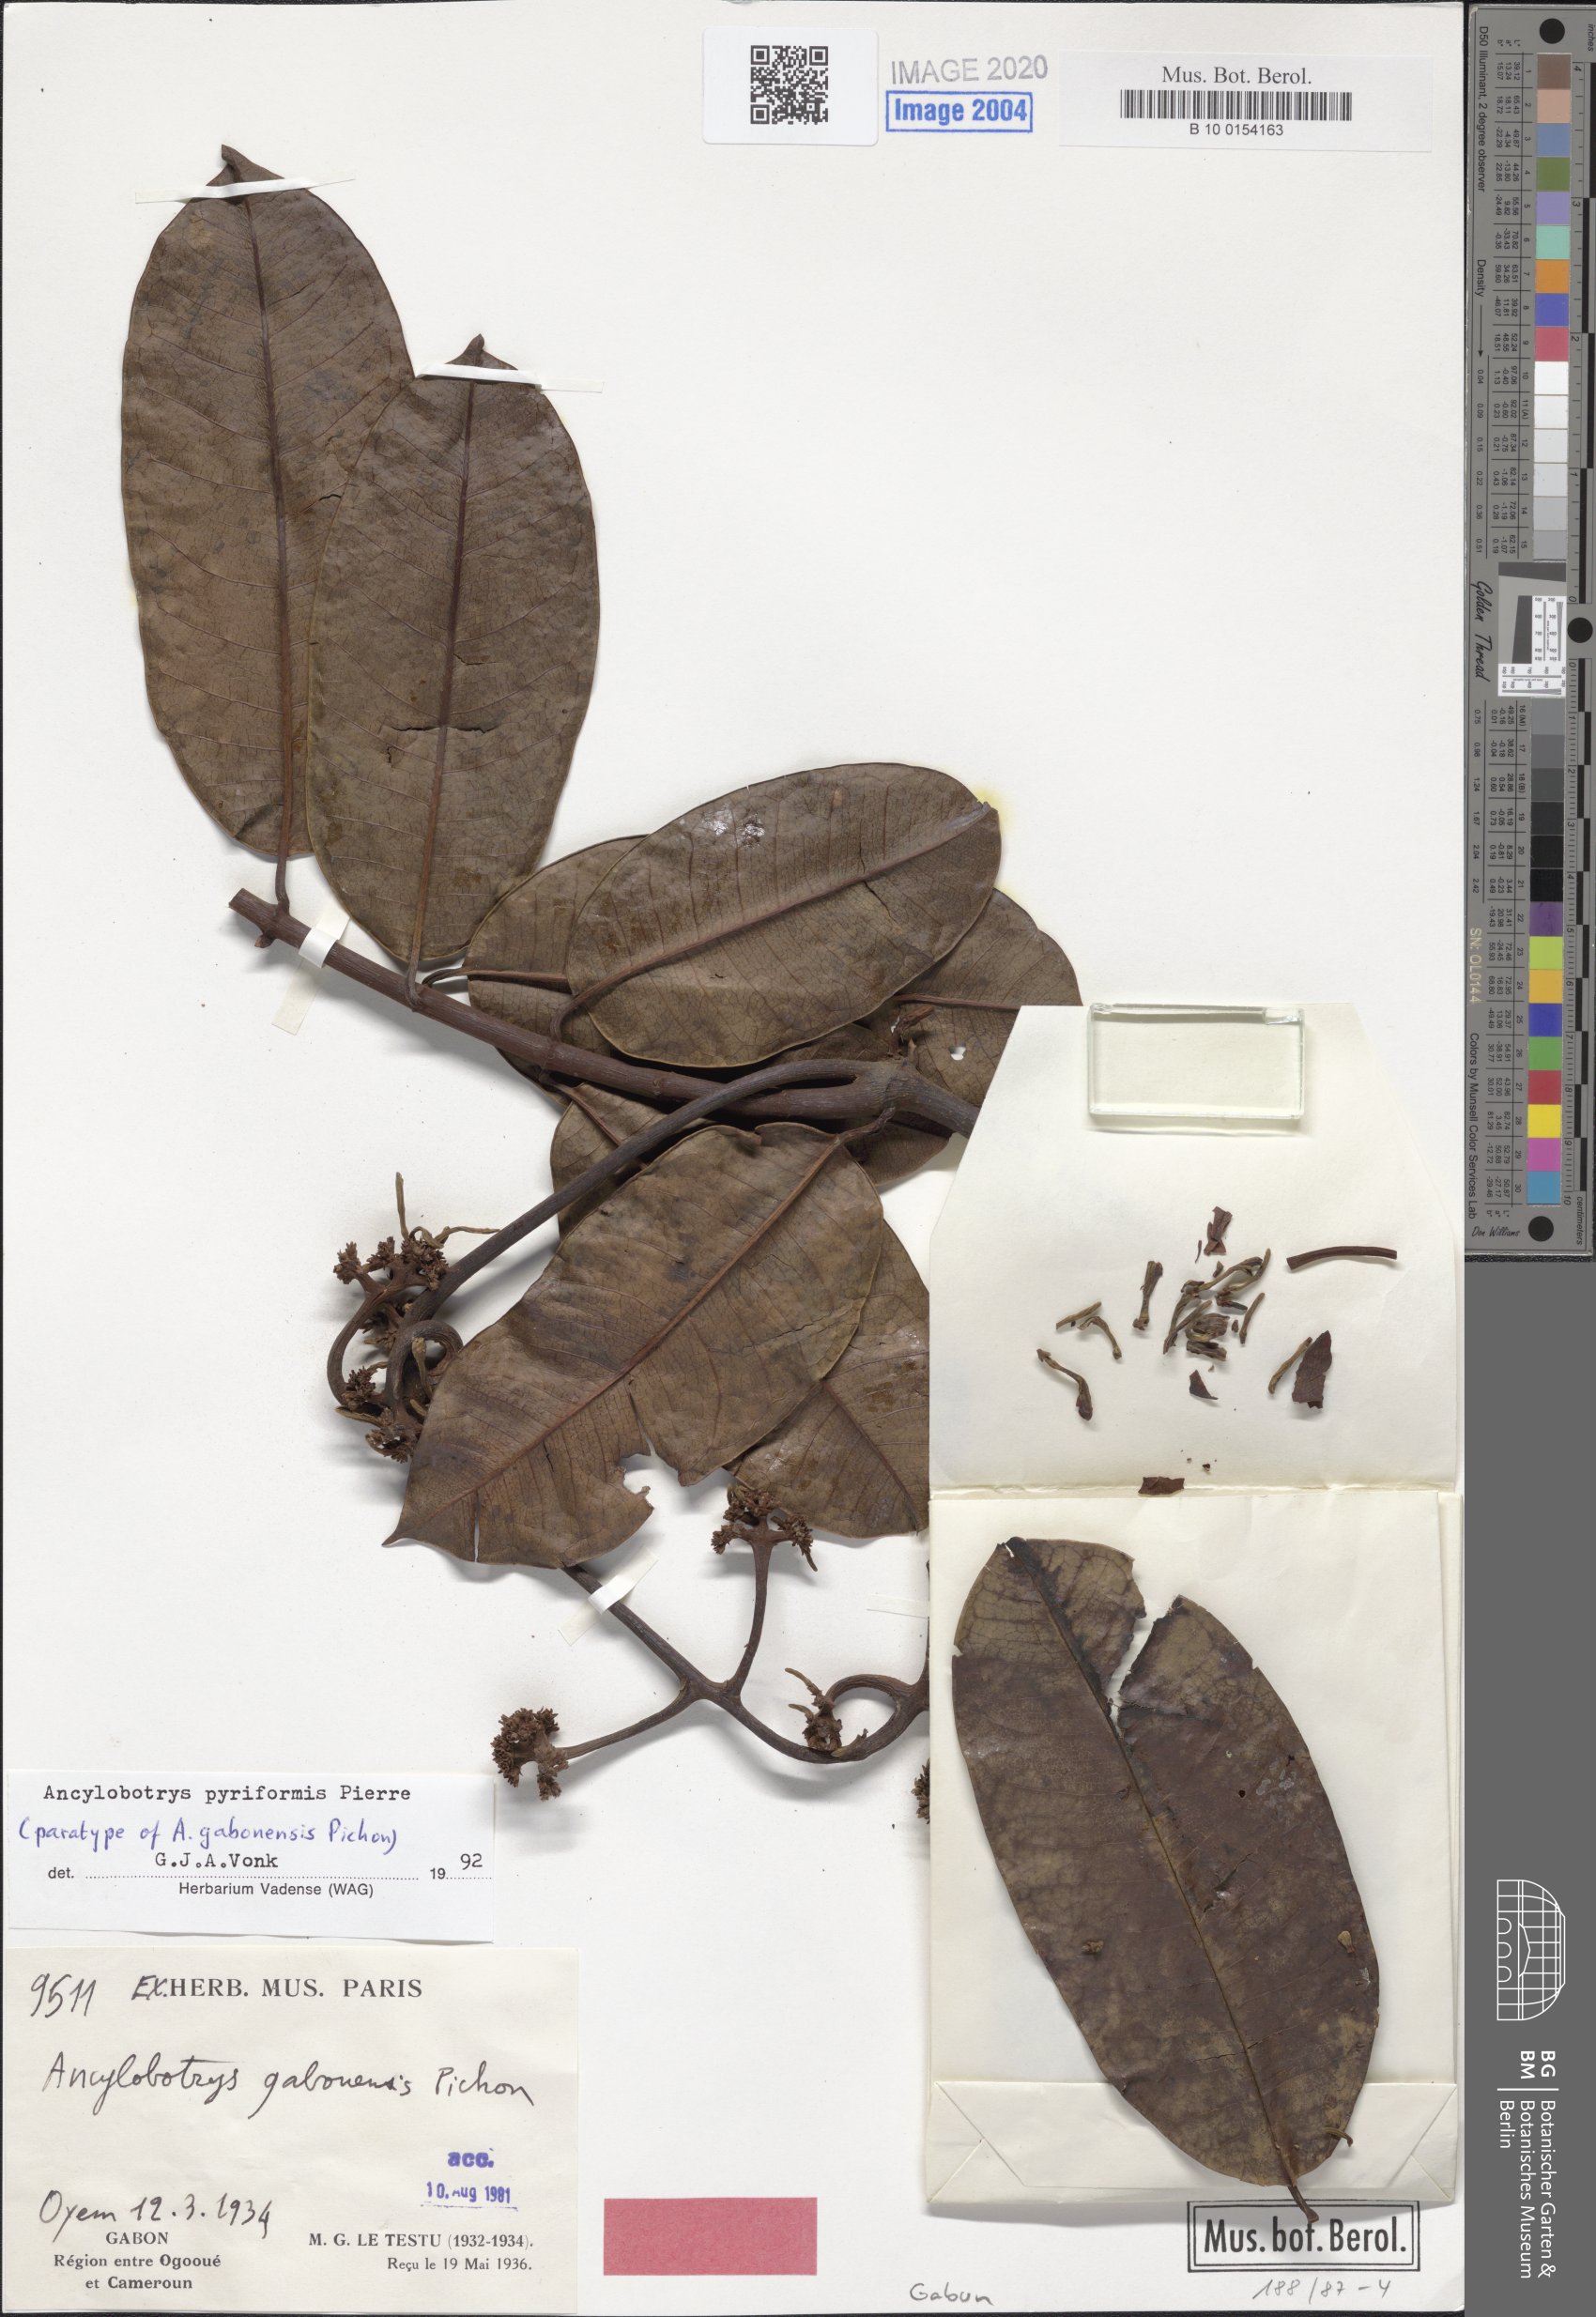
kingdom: Plantae
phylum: Tracheophyta
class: Magnoliopsida
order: Gentianales
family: Apocynaceae
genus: Ancylobothrys
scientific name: Ancylobothrys pyriformis
